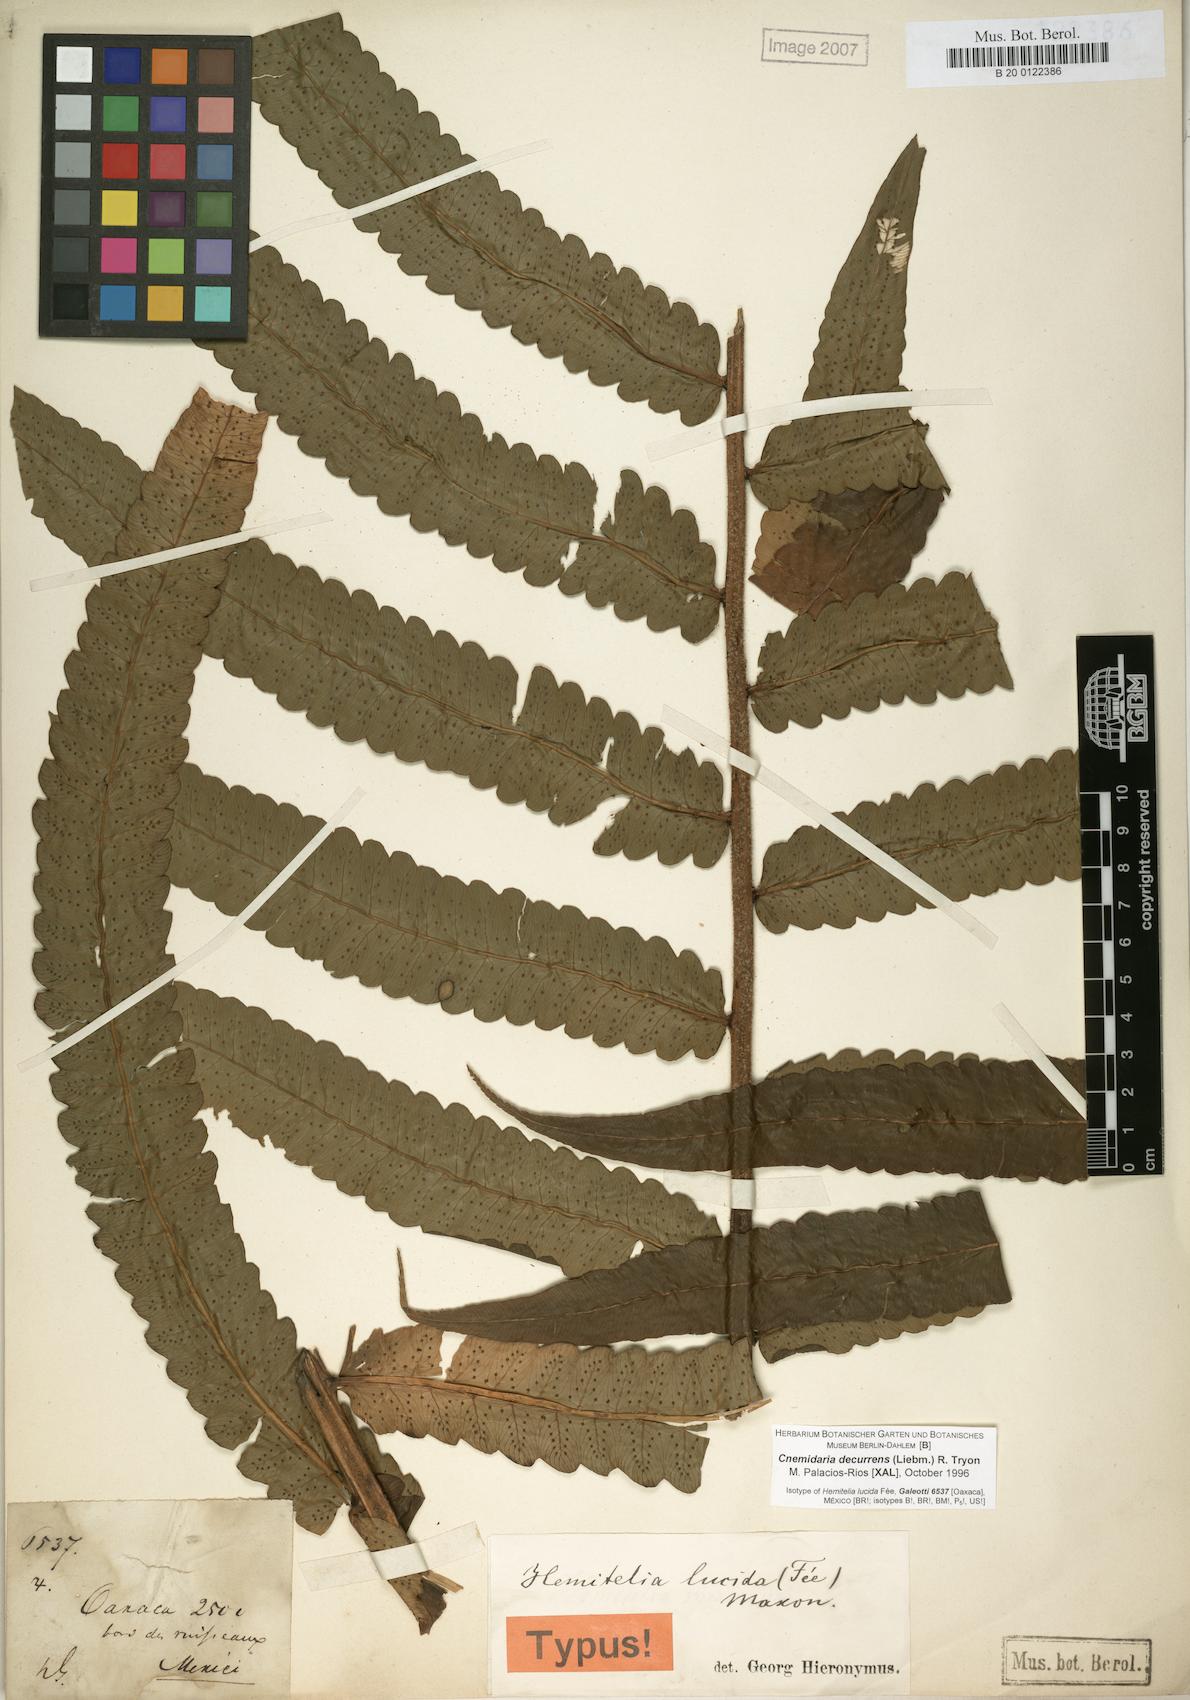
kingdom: Plantae
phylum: Tracheophyta
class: Polypodiopsida
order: Cyatheales
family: Cyatheaceae
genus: Cyathea
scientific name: Cyathea liebmannii
